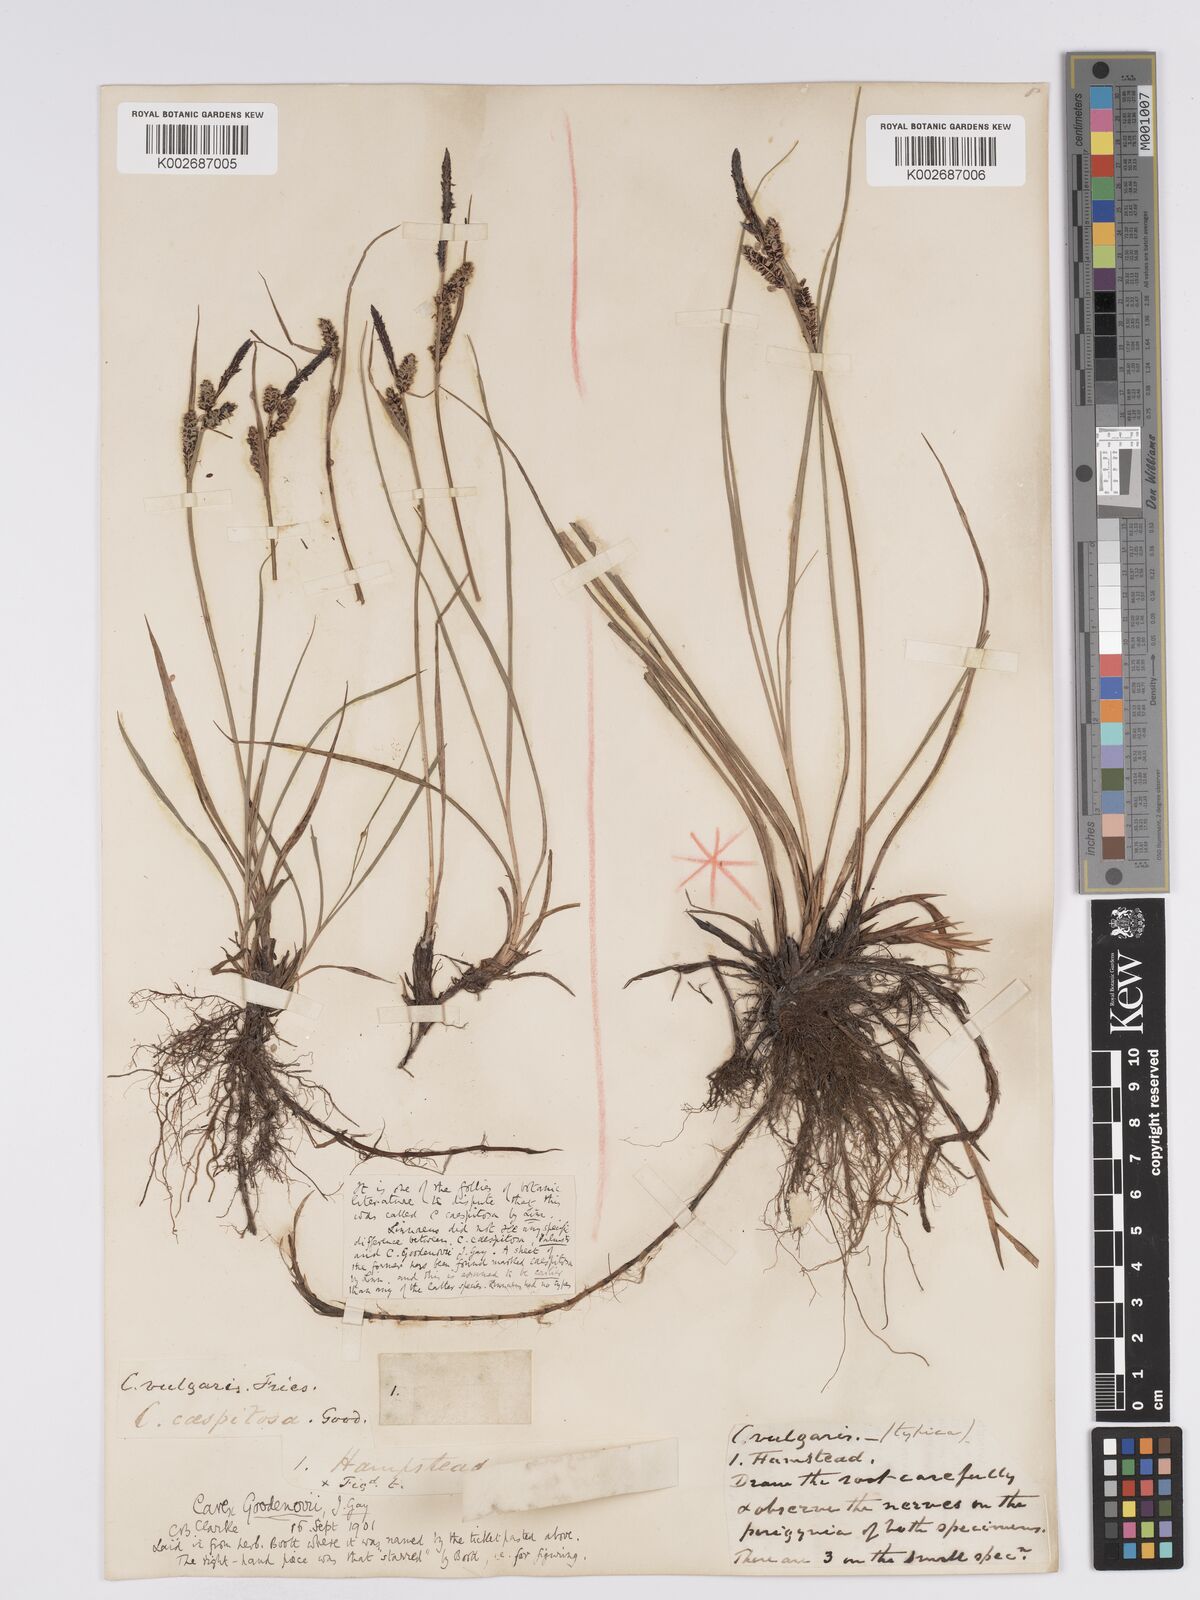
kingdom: Plantae
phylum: Tracheophyta
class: Liliopsida
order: Poales
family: Cyperaceae
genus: Carex
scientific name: Carex nigra
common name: Common sedge
